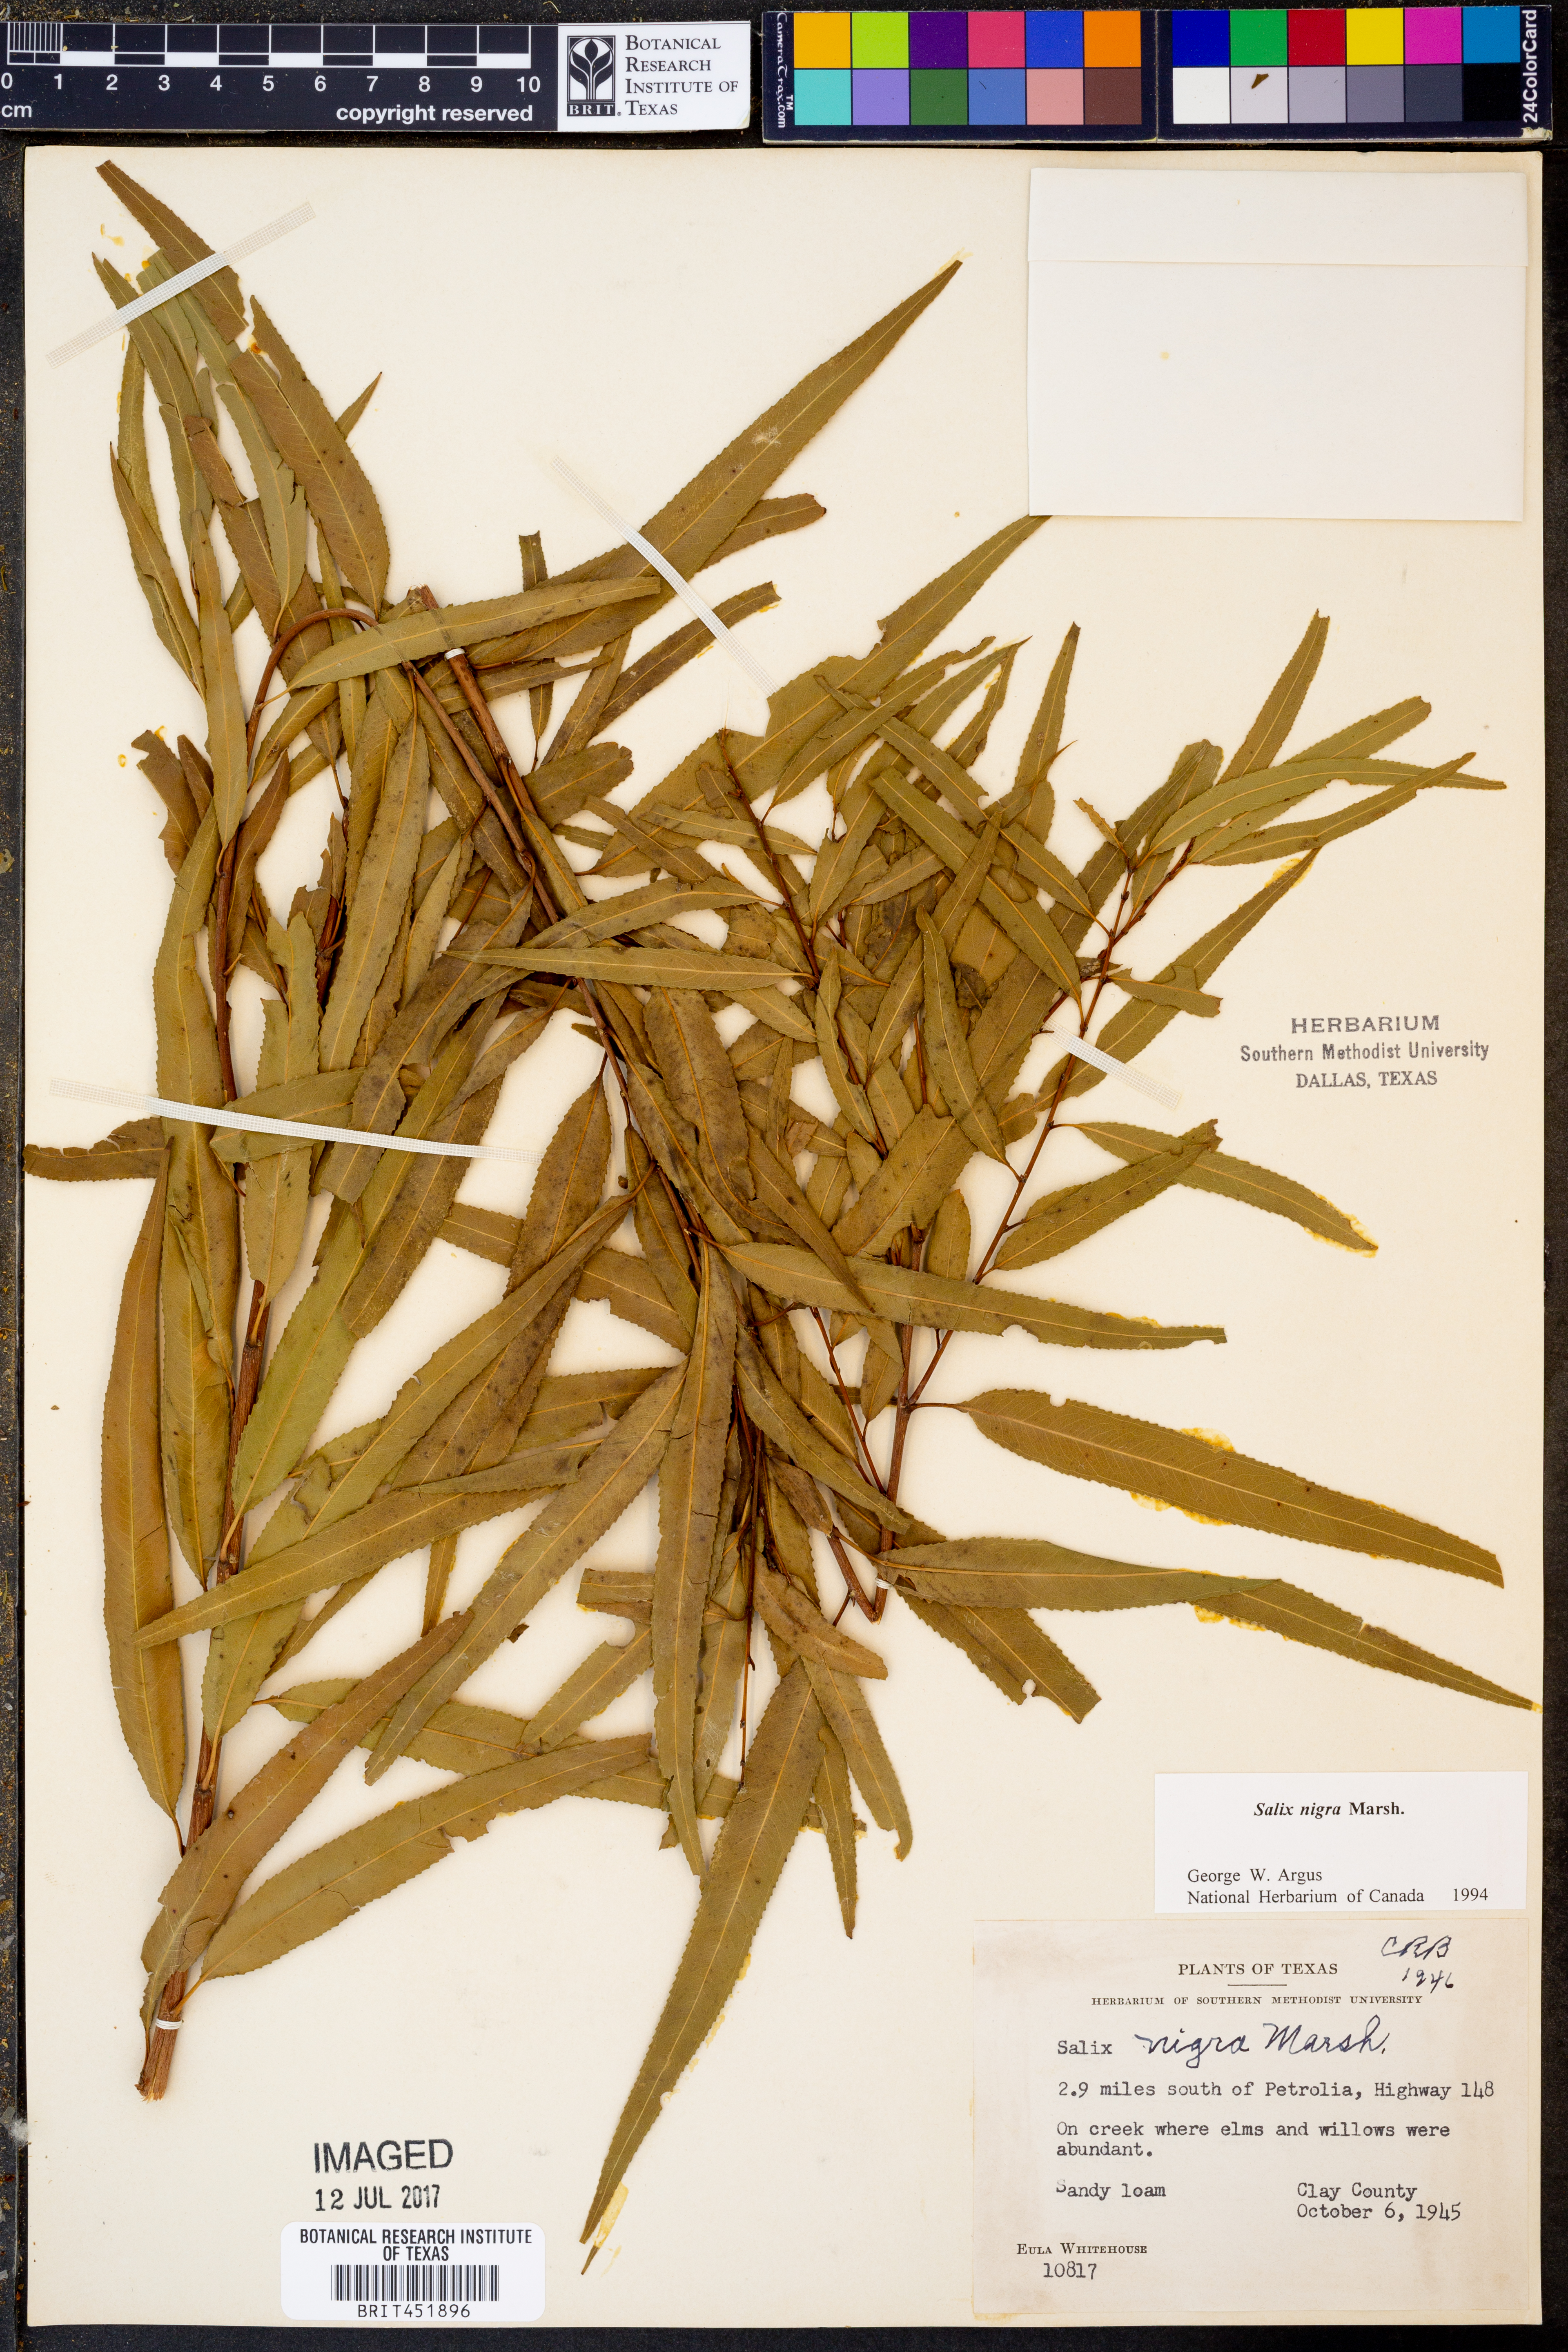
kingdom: Plantae
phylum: Tracheophyta
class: Magnoliopsida
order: Malpighiales
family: Salicaceae
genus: Salix
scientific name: Salix nigra
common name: Black willow
